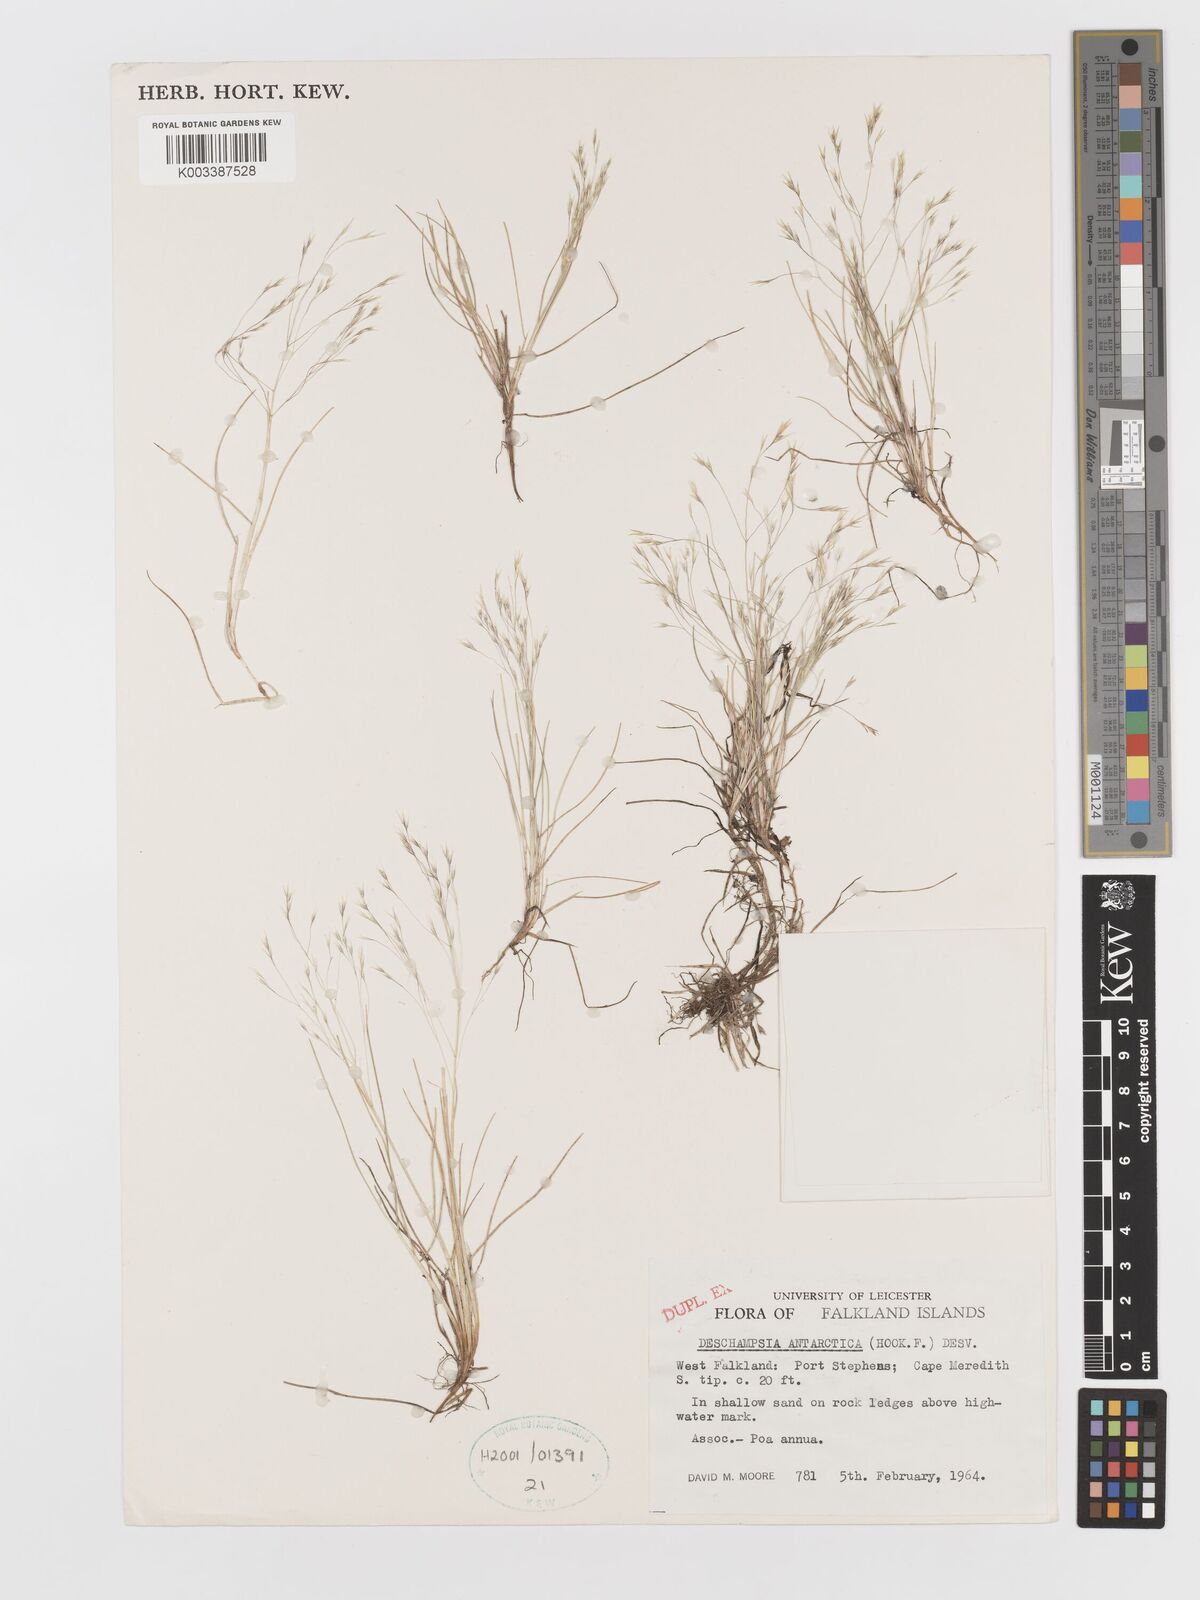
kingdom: Plantae
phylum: Tracheophyta
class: Liliopsida
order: Poales
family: Poaceae
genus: Deschampsia
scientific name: Deschampsia antarctica
